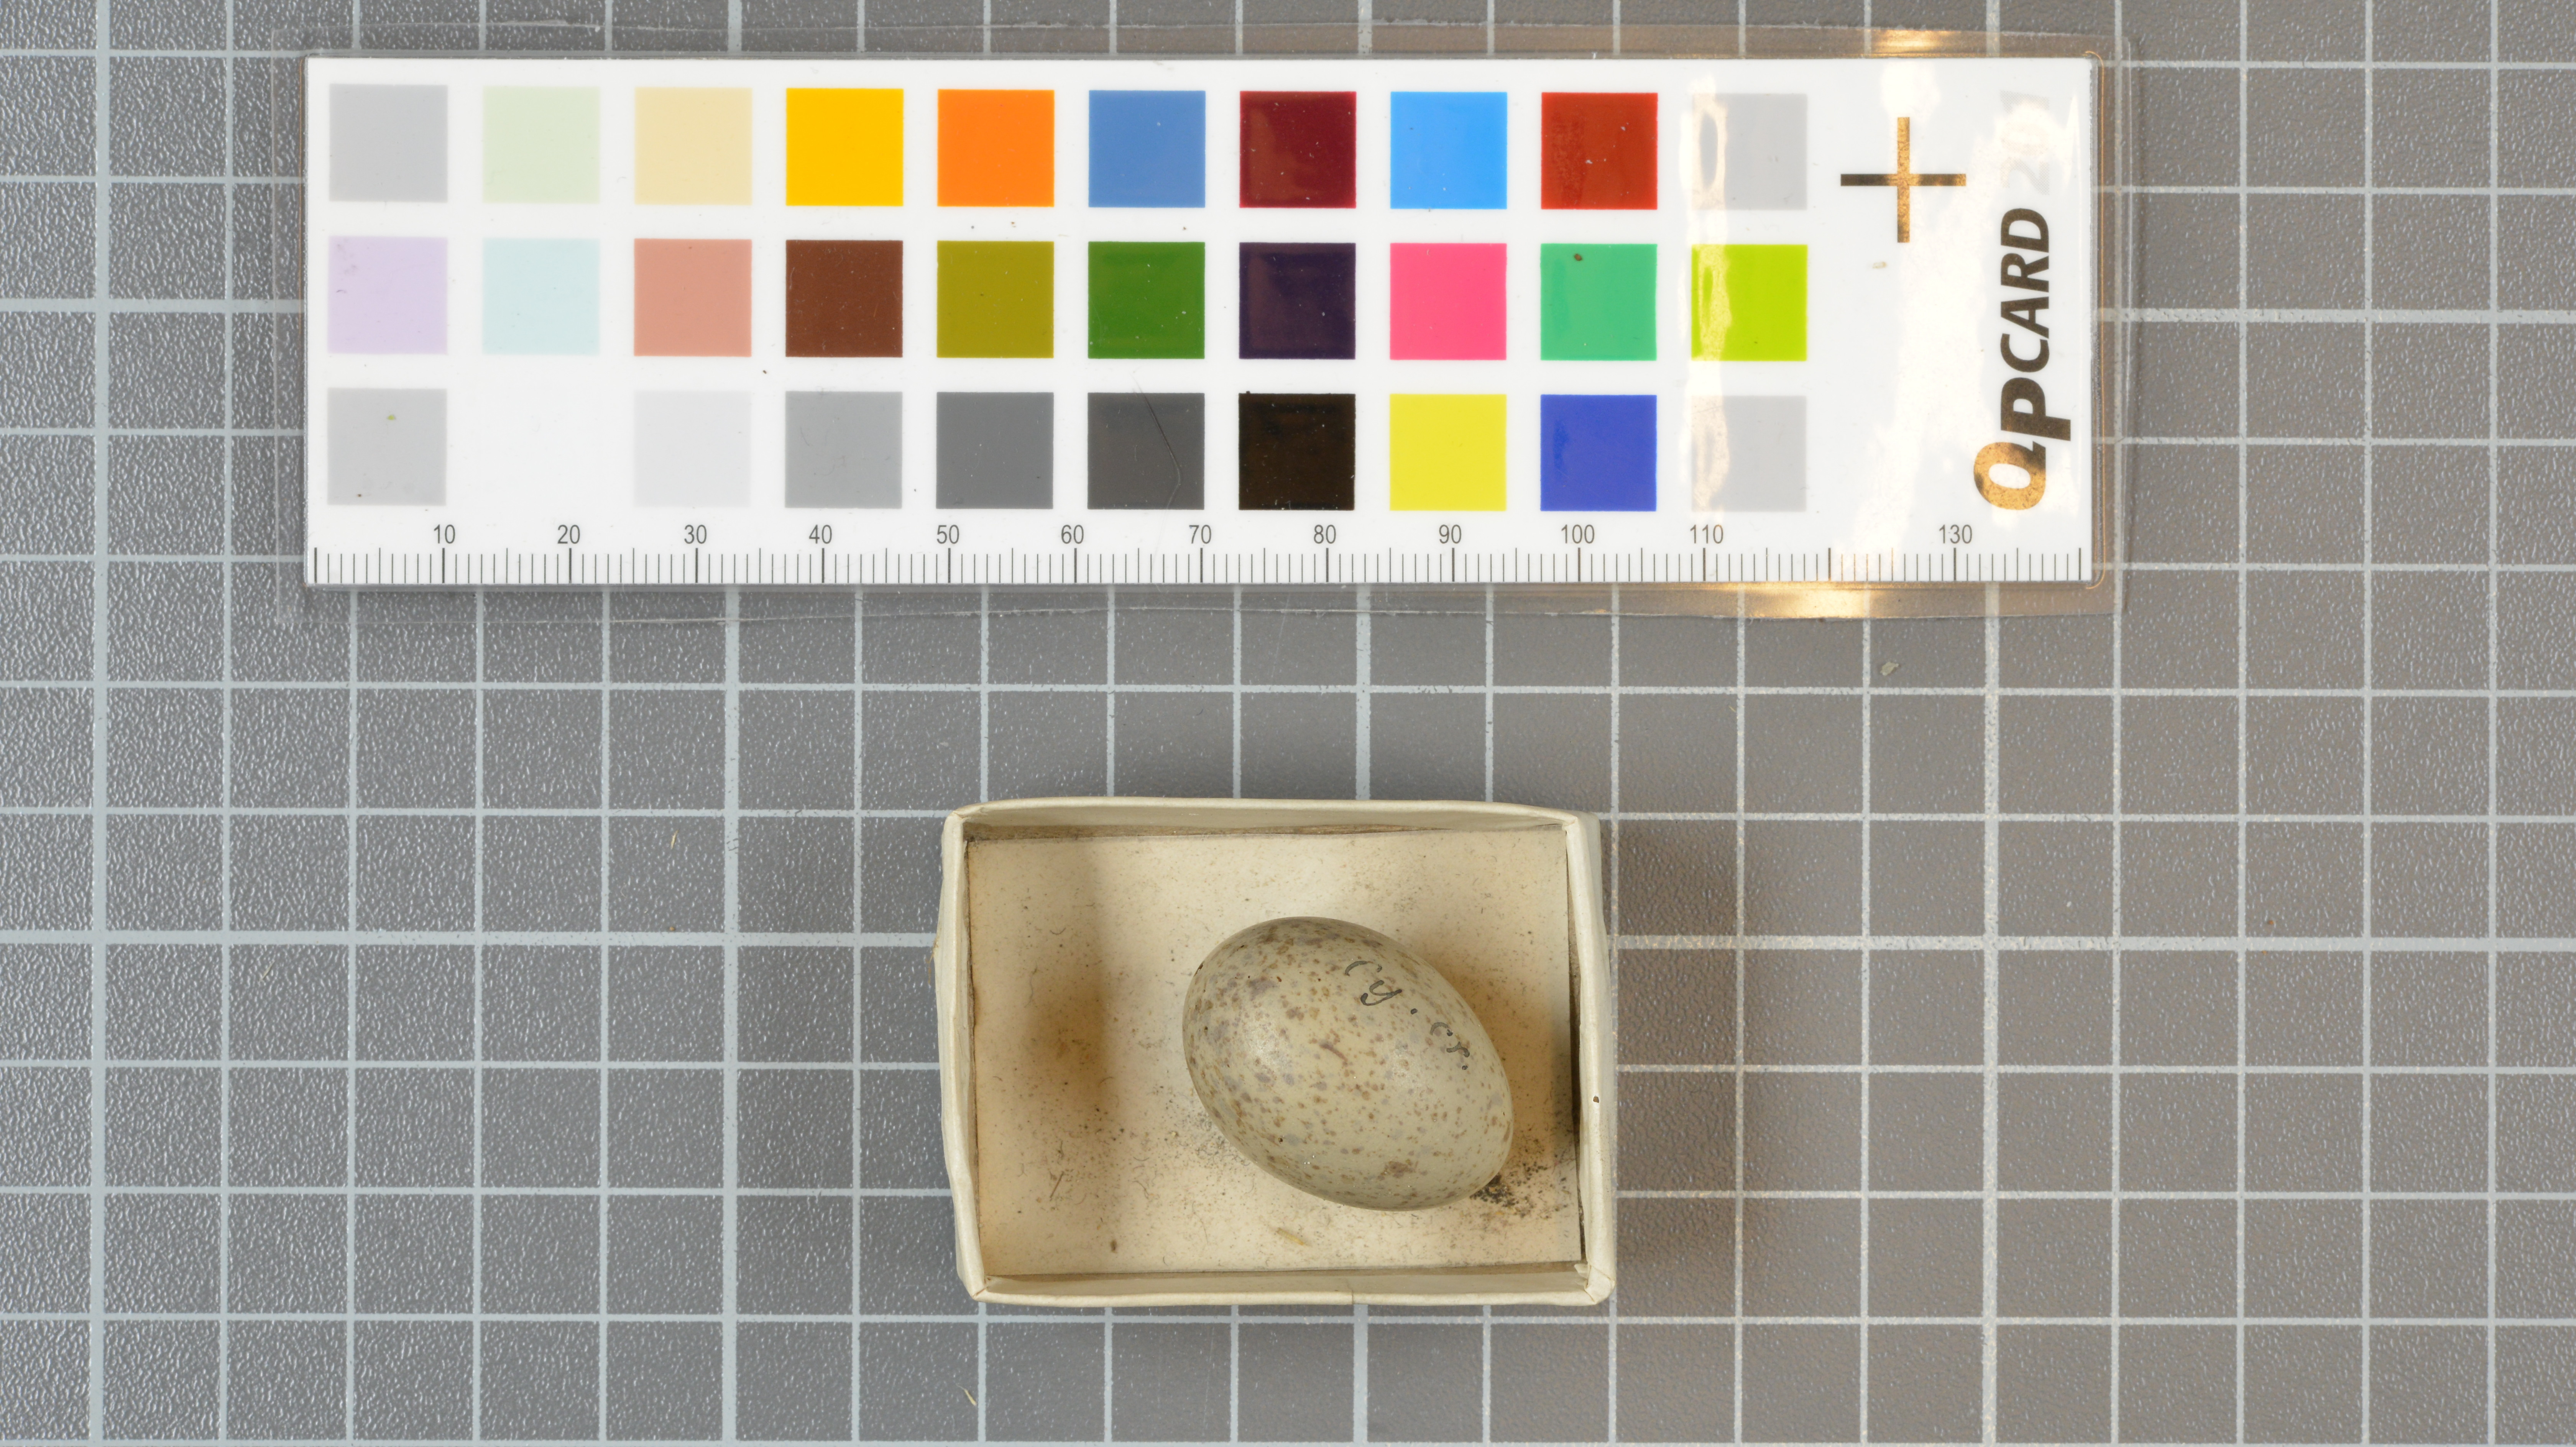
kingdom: Animalia
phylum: Chordata
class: Aves
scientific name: Aves
